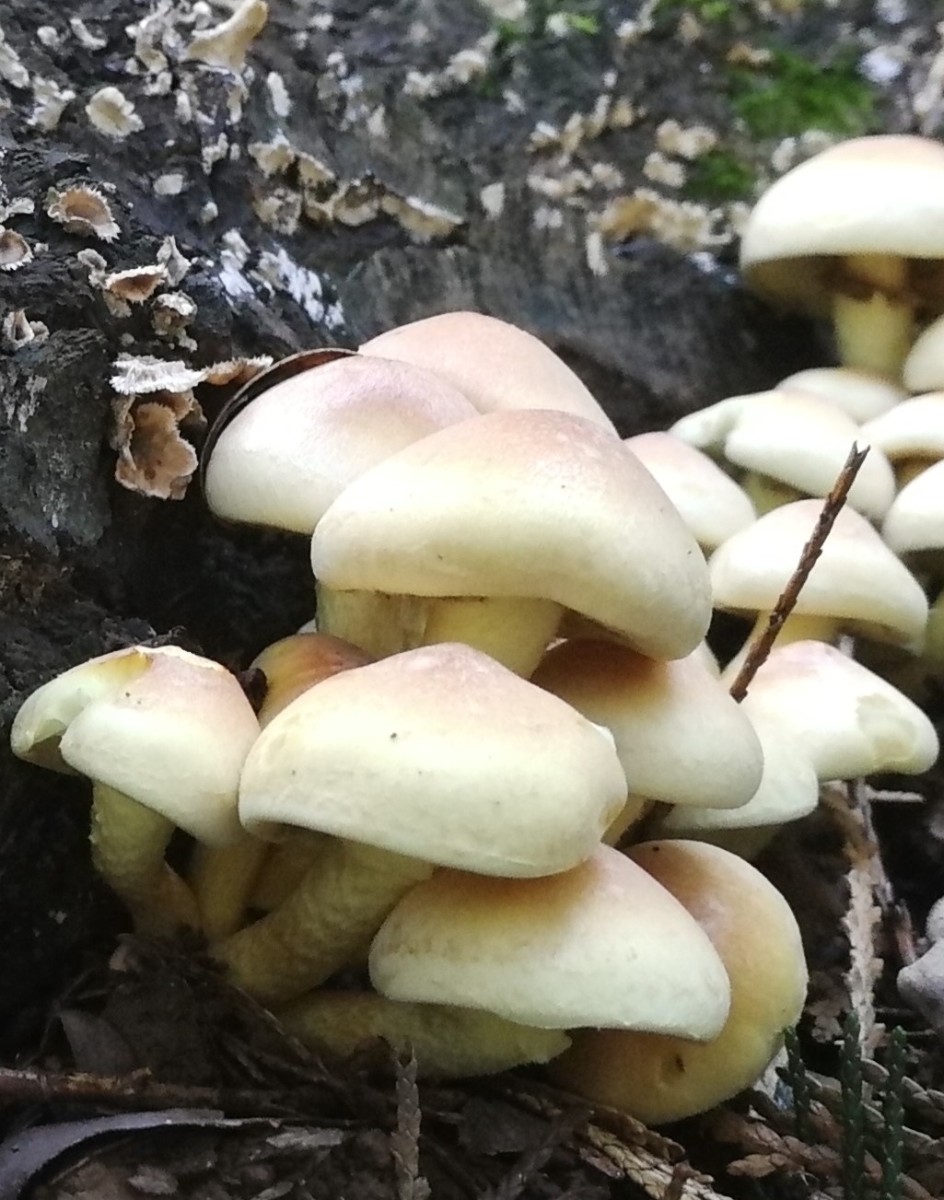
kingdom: Fungi
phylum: Basidiomycota
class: Agaricomycetes
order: Agaricales
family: Strophariaceae
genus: Hypholoma
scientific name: Hypholoma fasciculare
